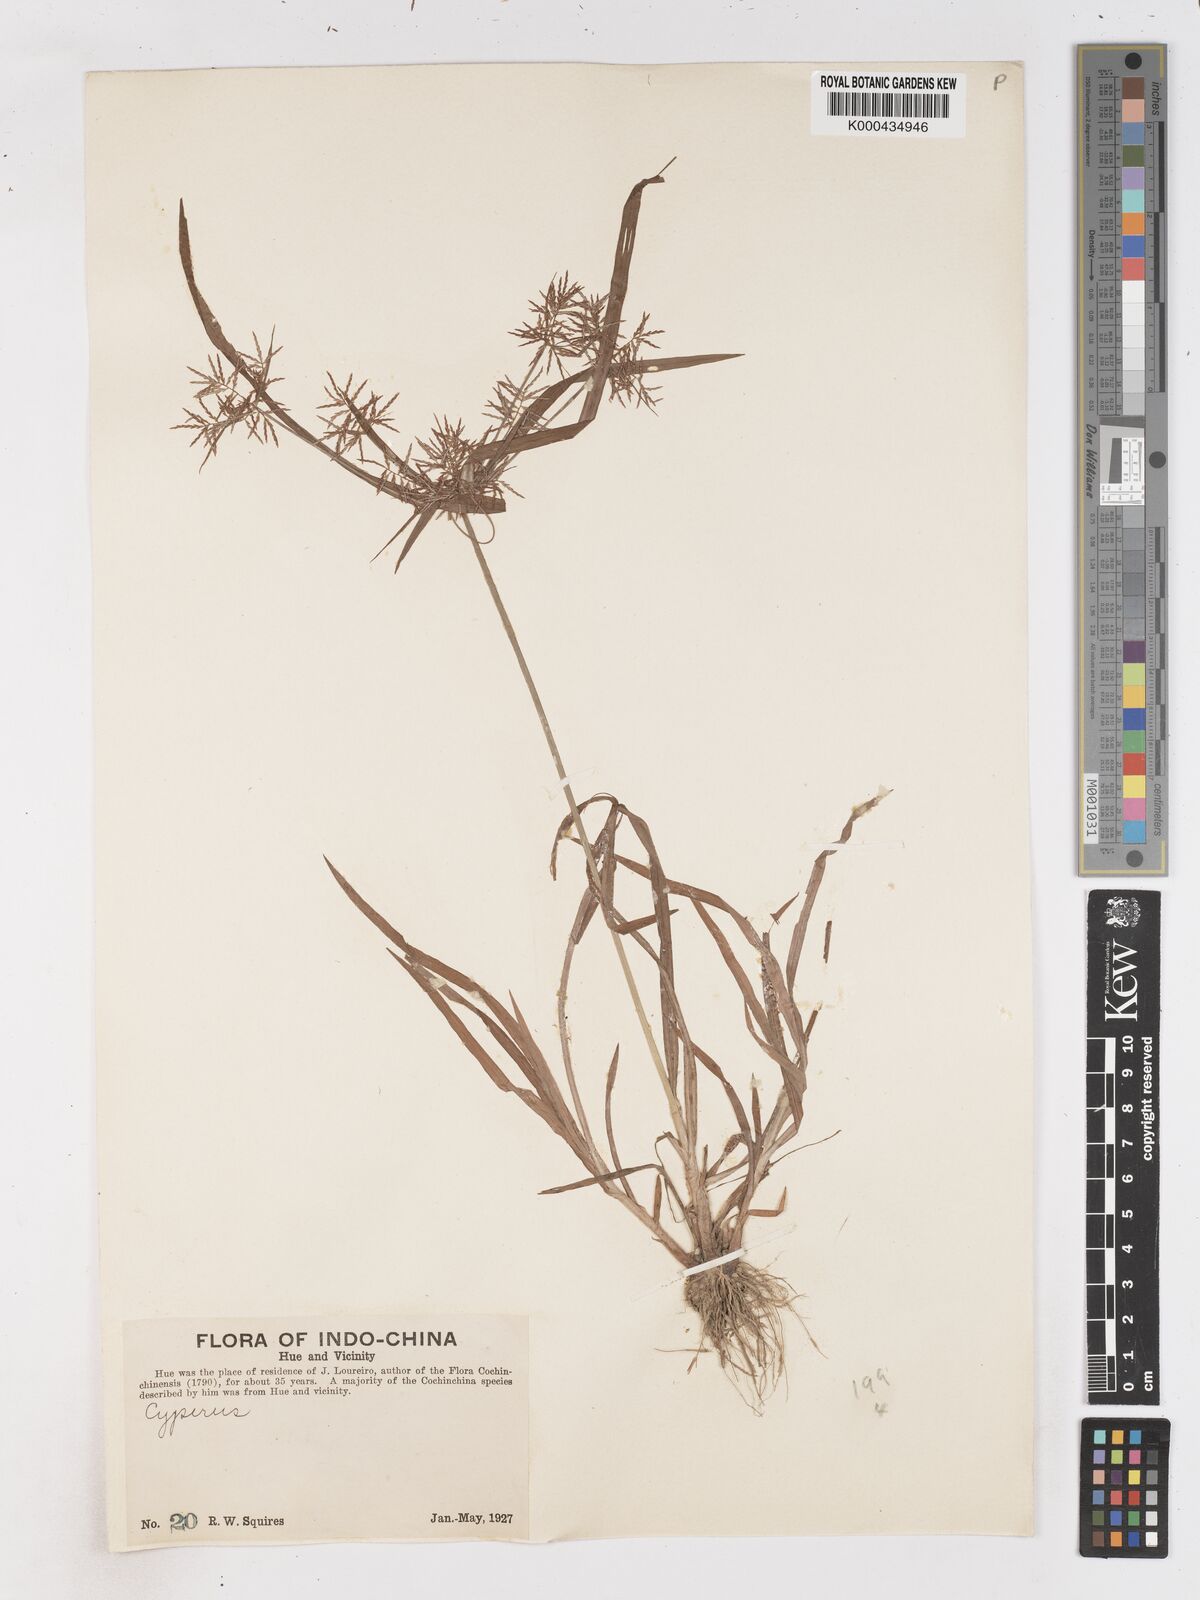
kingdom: Plantae
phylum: Tracheophyta
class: Liliopsida
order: Poales
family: Cyperaceae
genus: Cyperus
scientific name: Cyperus distans
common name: Slender cyperus
